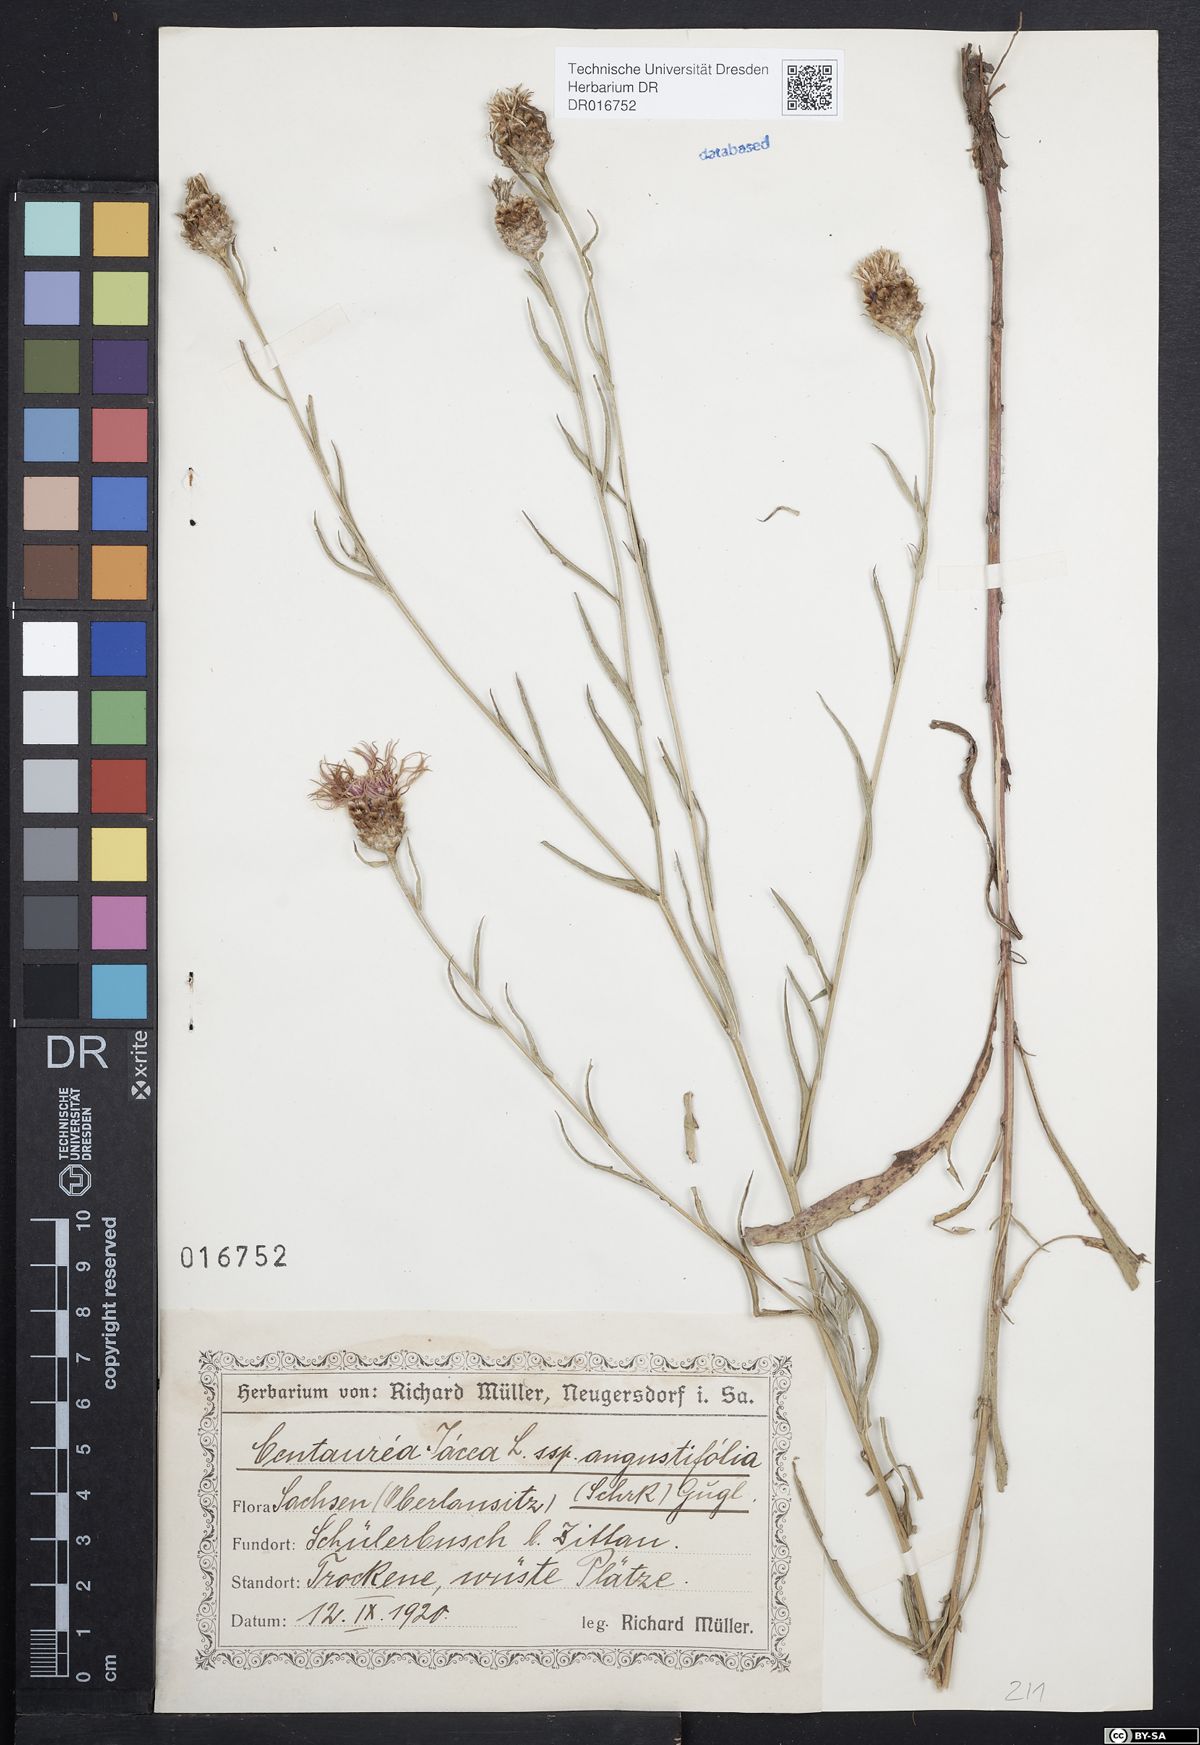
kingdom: Plantae
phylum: Tracheophyta
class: Magnoliopsida
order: Asterales
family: Asteraceae
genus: Centaurea
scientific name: Centaurea pannonica
